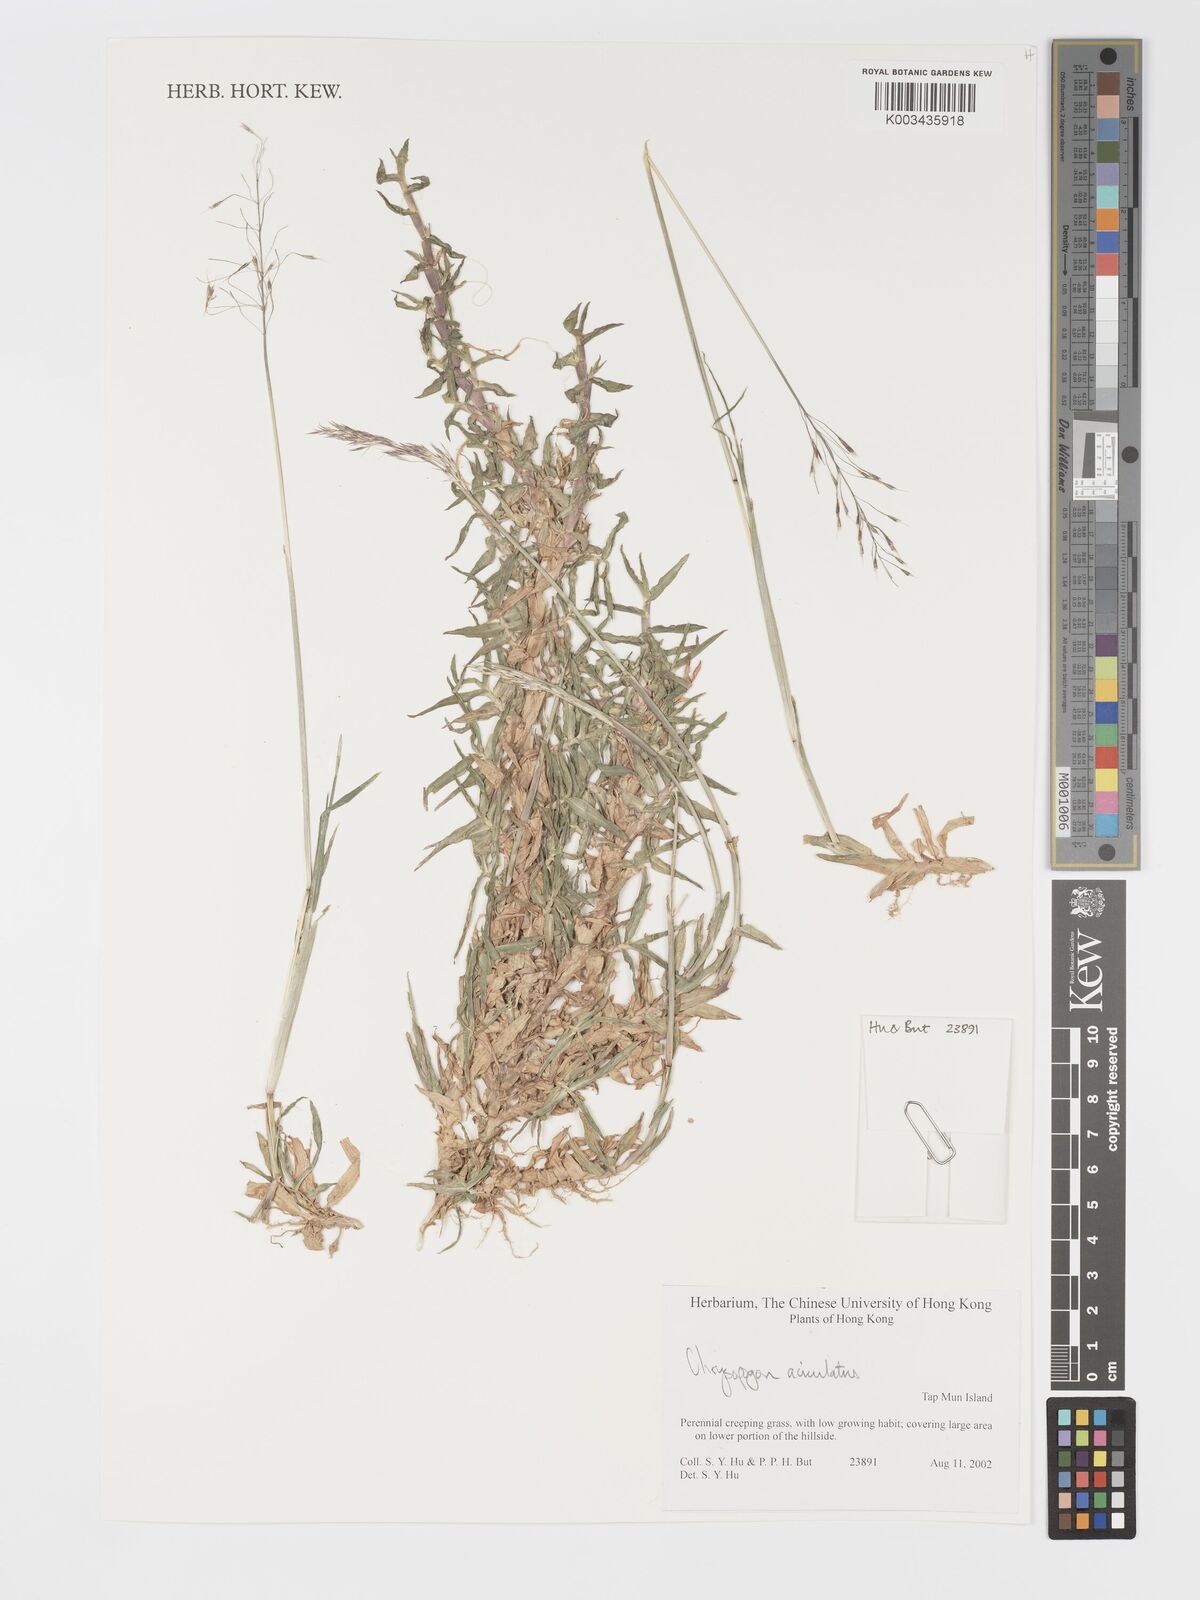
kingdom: Plantae
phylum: Tracheophyta
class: Liliopsida
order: Poales
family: Poaceae
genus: Chrysopogon
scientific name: Chrysopogon aciculatus
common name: Pilipiliula
